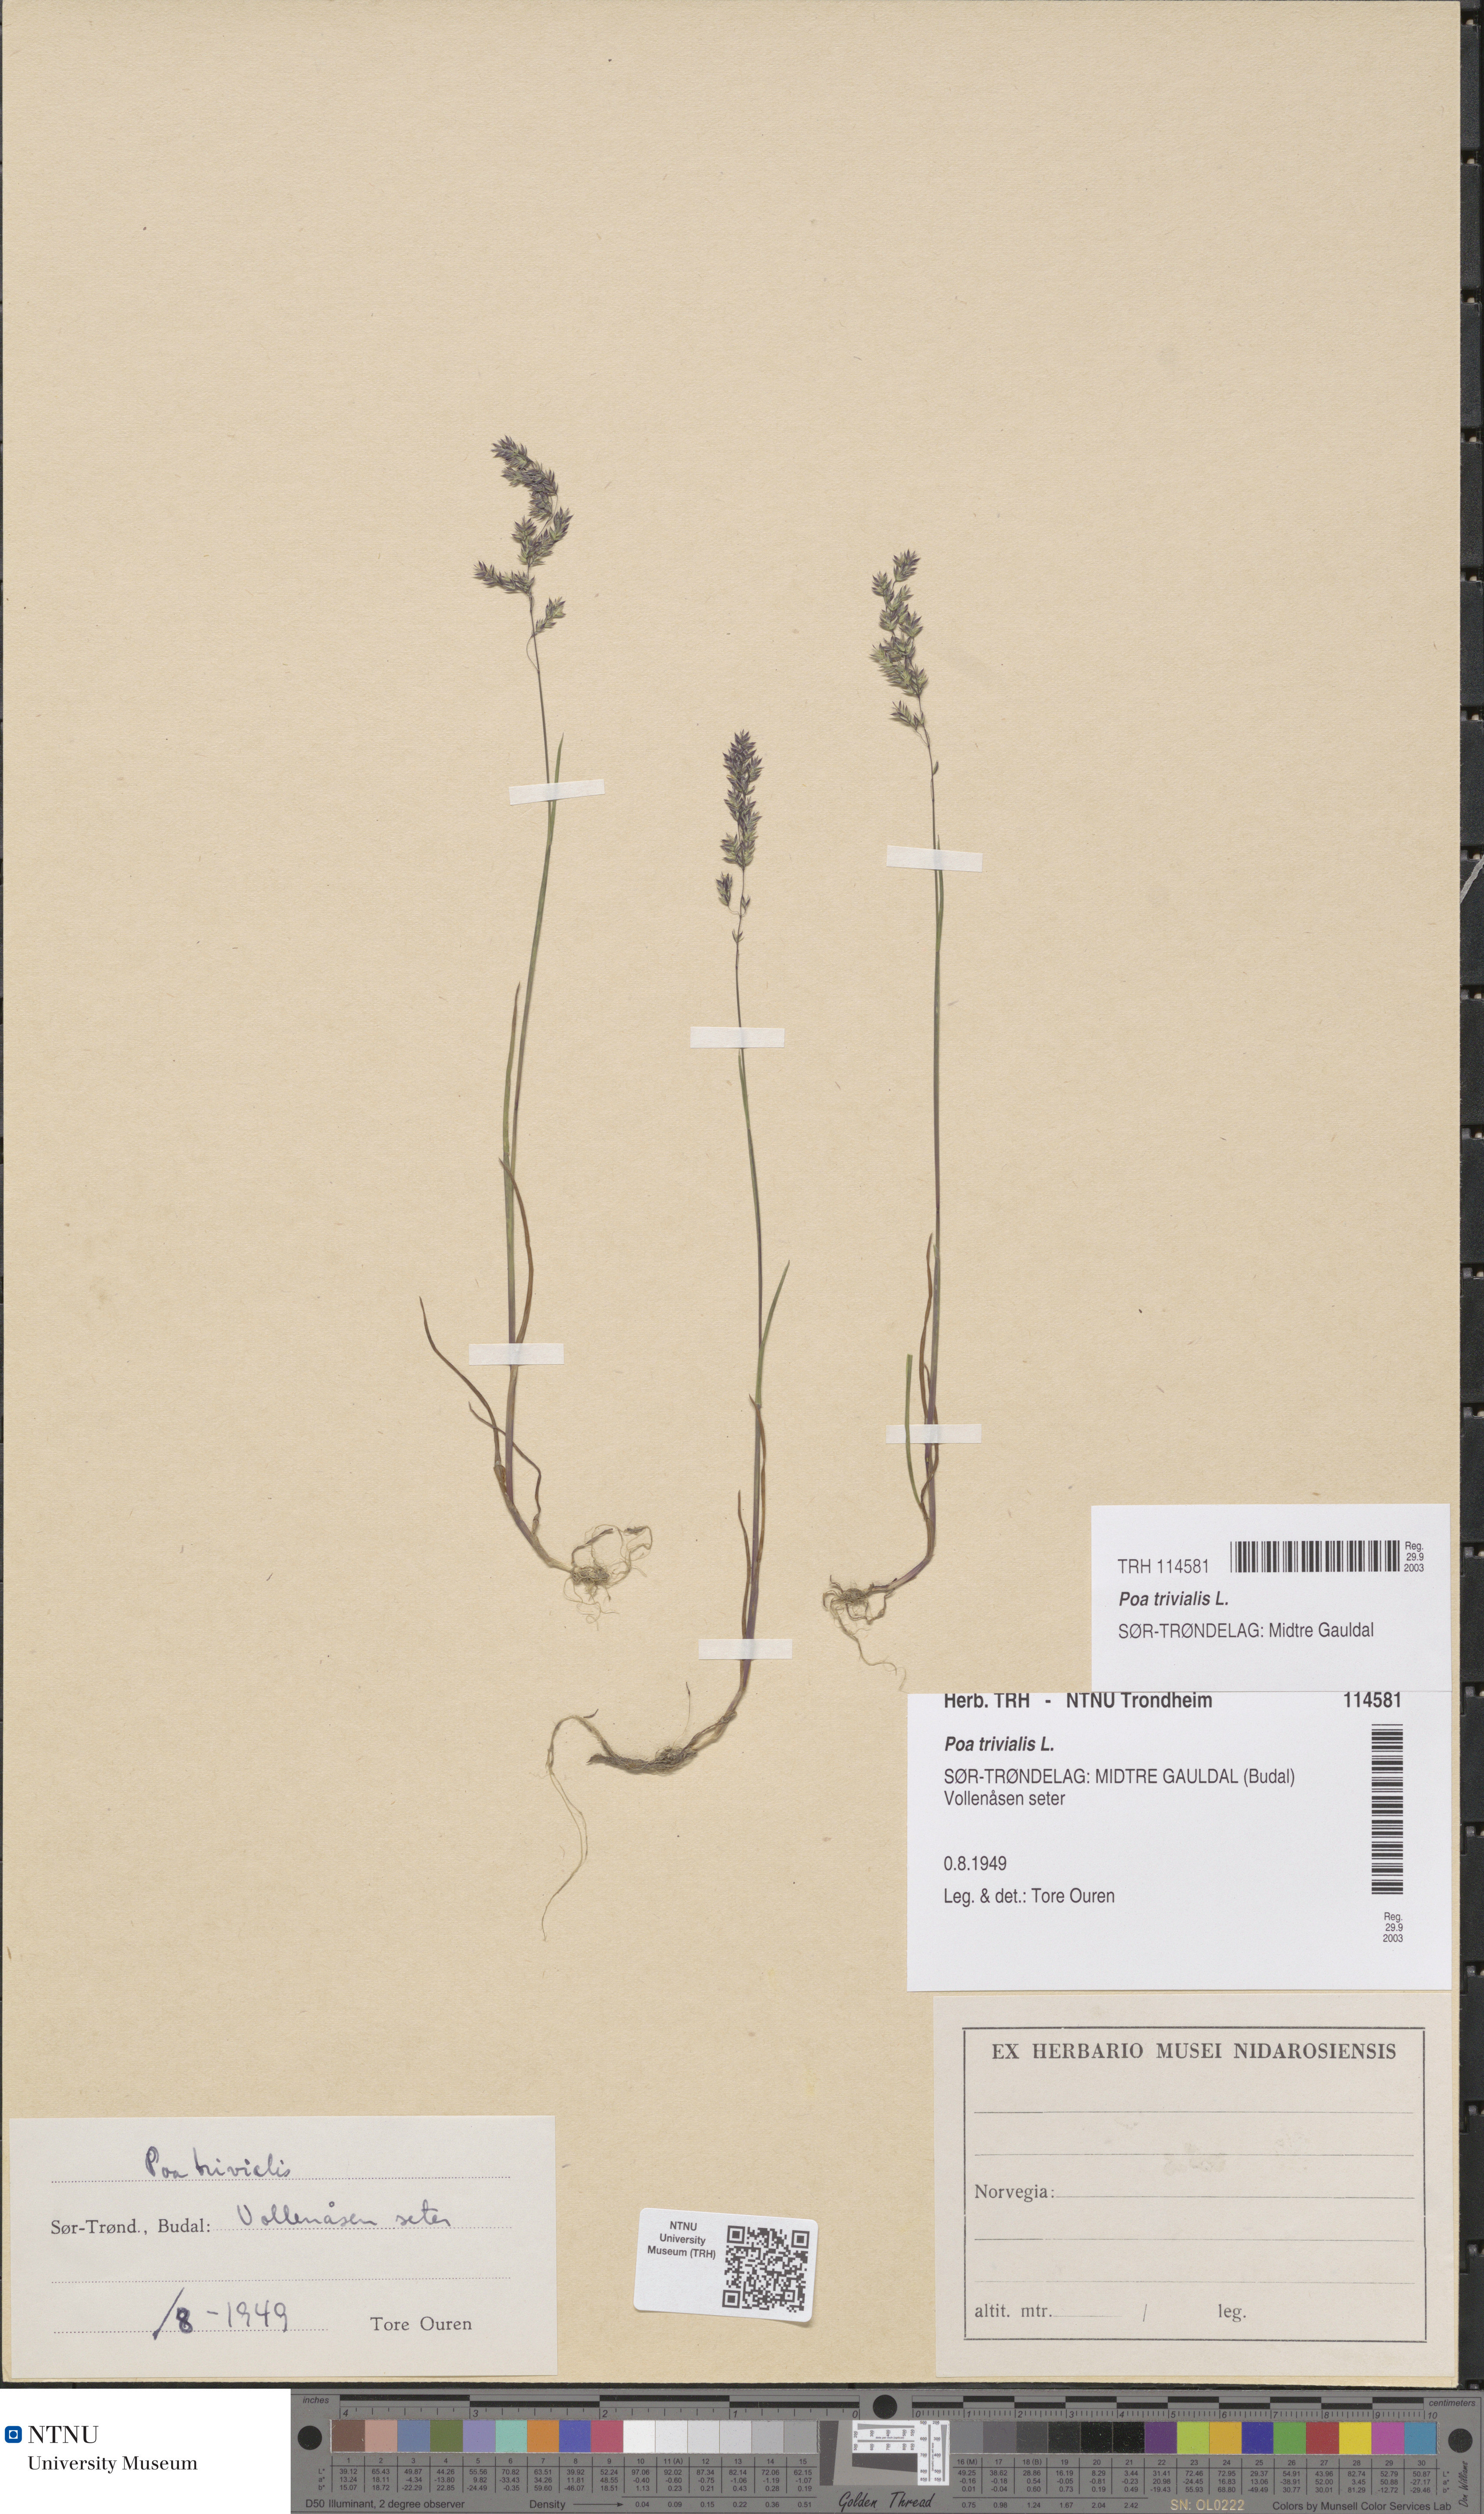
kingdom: Plantae
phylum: Tracheophyta
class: Liliopsida
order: Poales
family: Poaceae
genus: Poa
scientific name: Poa trivialis
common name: Rough bluegrass
